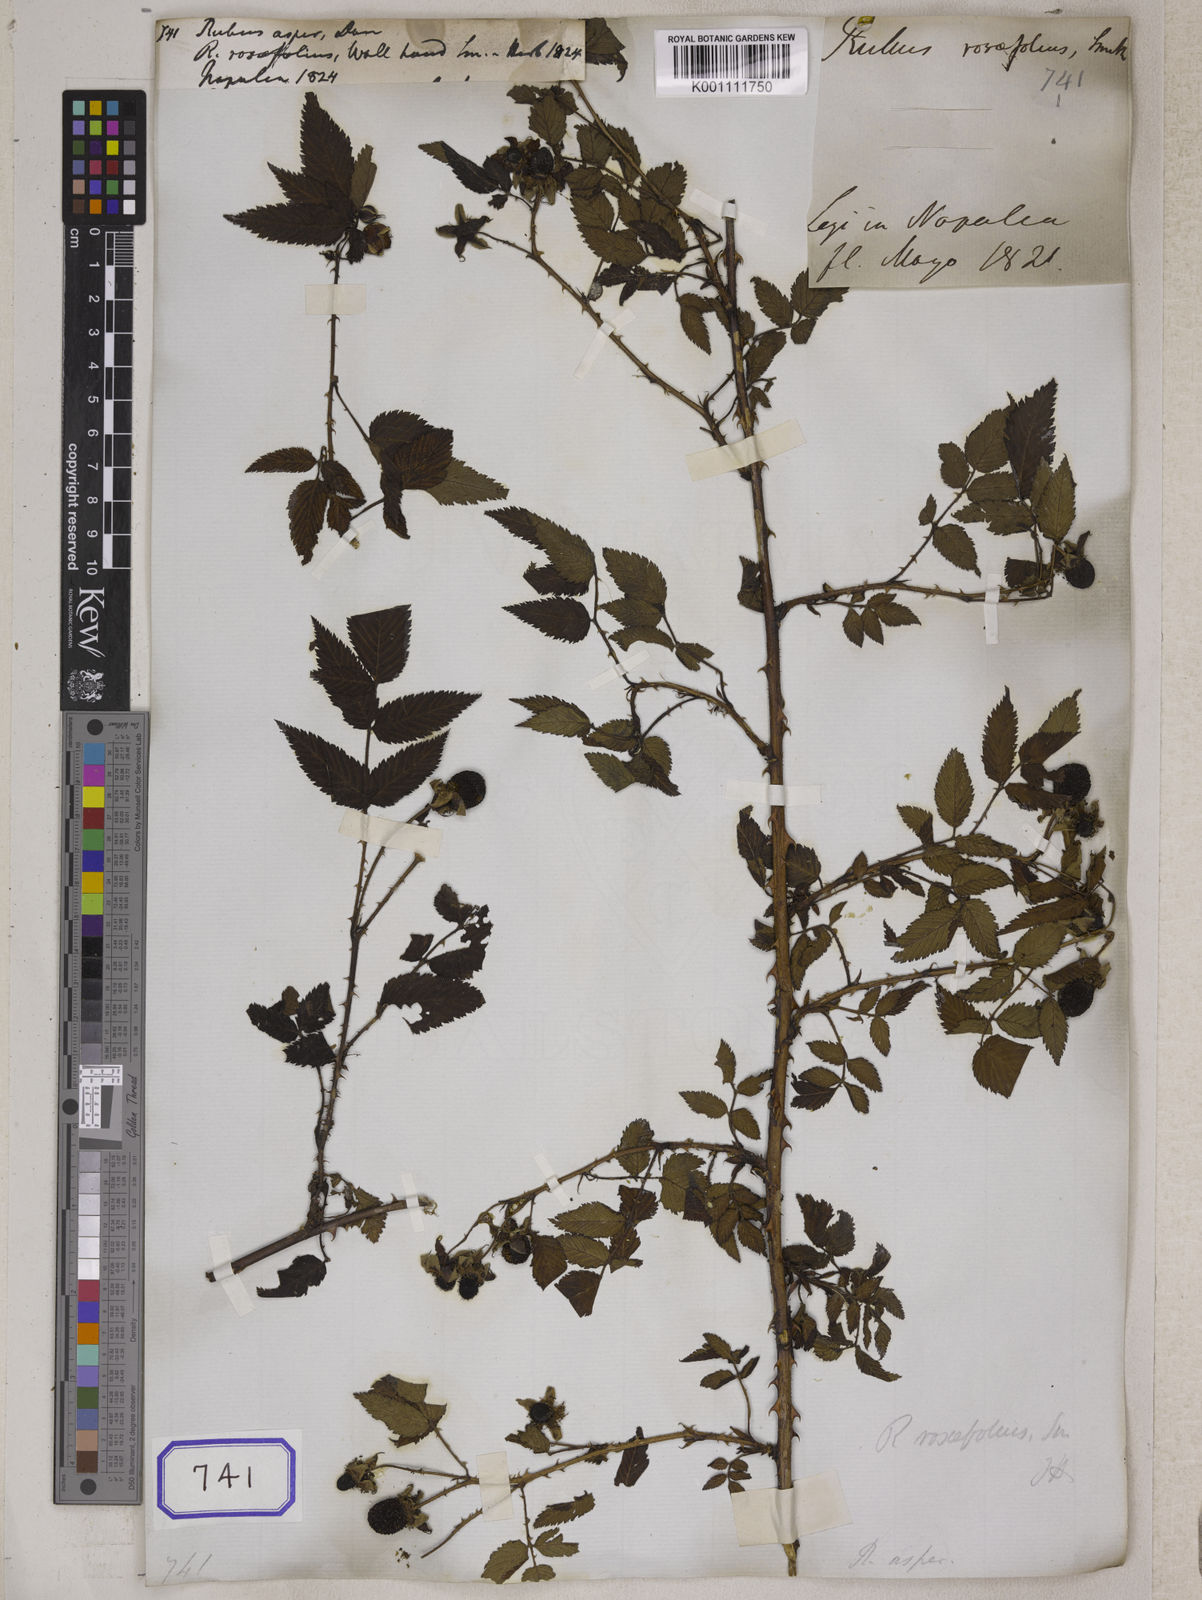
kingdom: Plantae
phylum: Tracheophyta
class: Magnoliopsida
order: Rosales
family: Rosaceae
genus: Rubus
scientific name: Rubus
